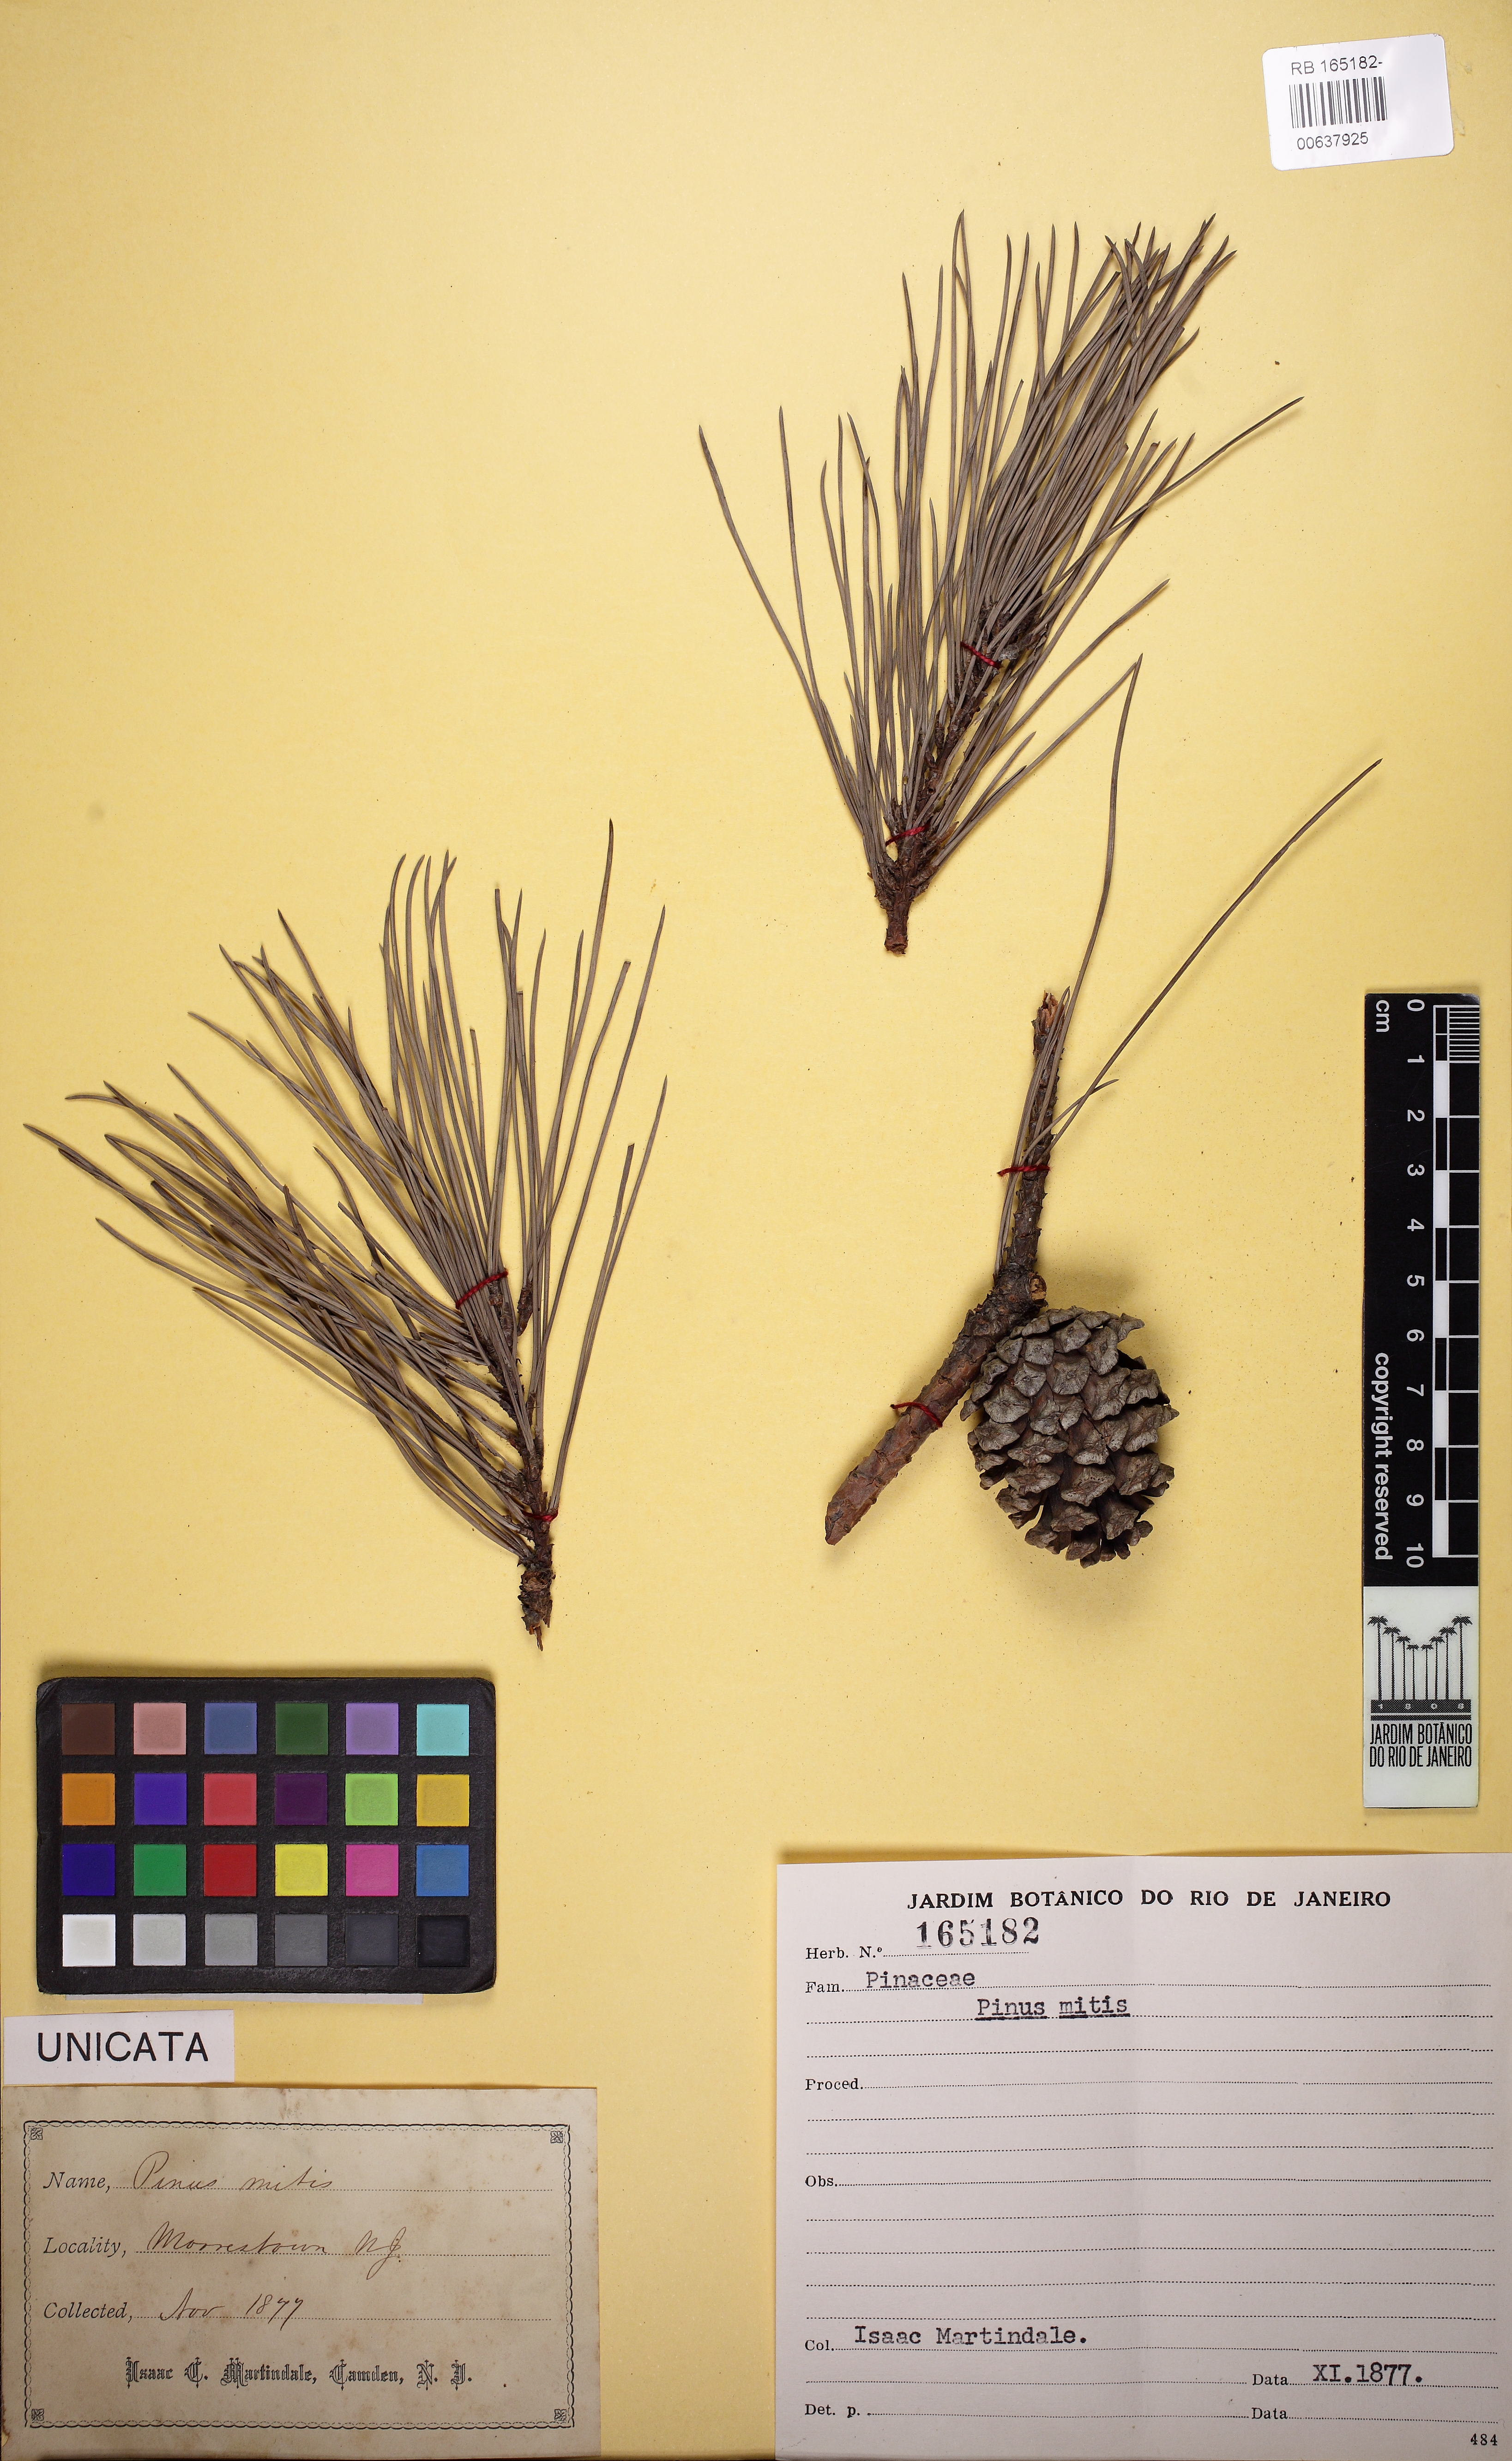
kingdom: Plantae
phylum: Tracheophyta
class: Pinopsida
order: Pinales
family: Pinaceae
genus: Pinus
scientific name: Pinus echinata
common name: Shortleaf pine
